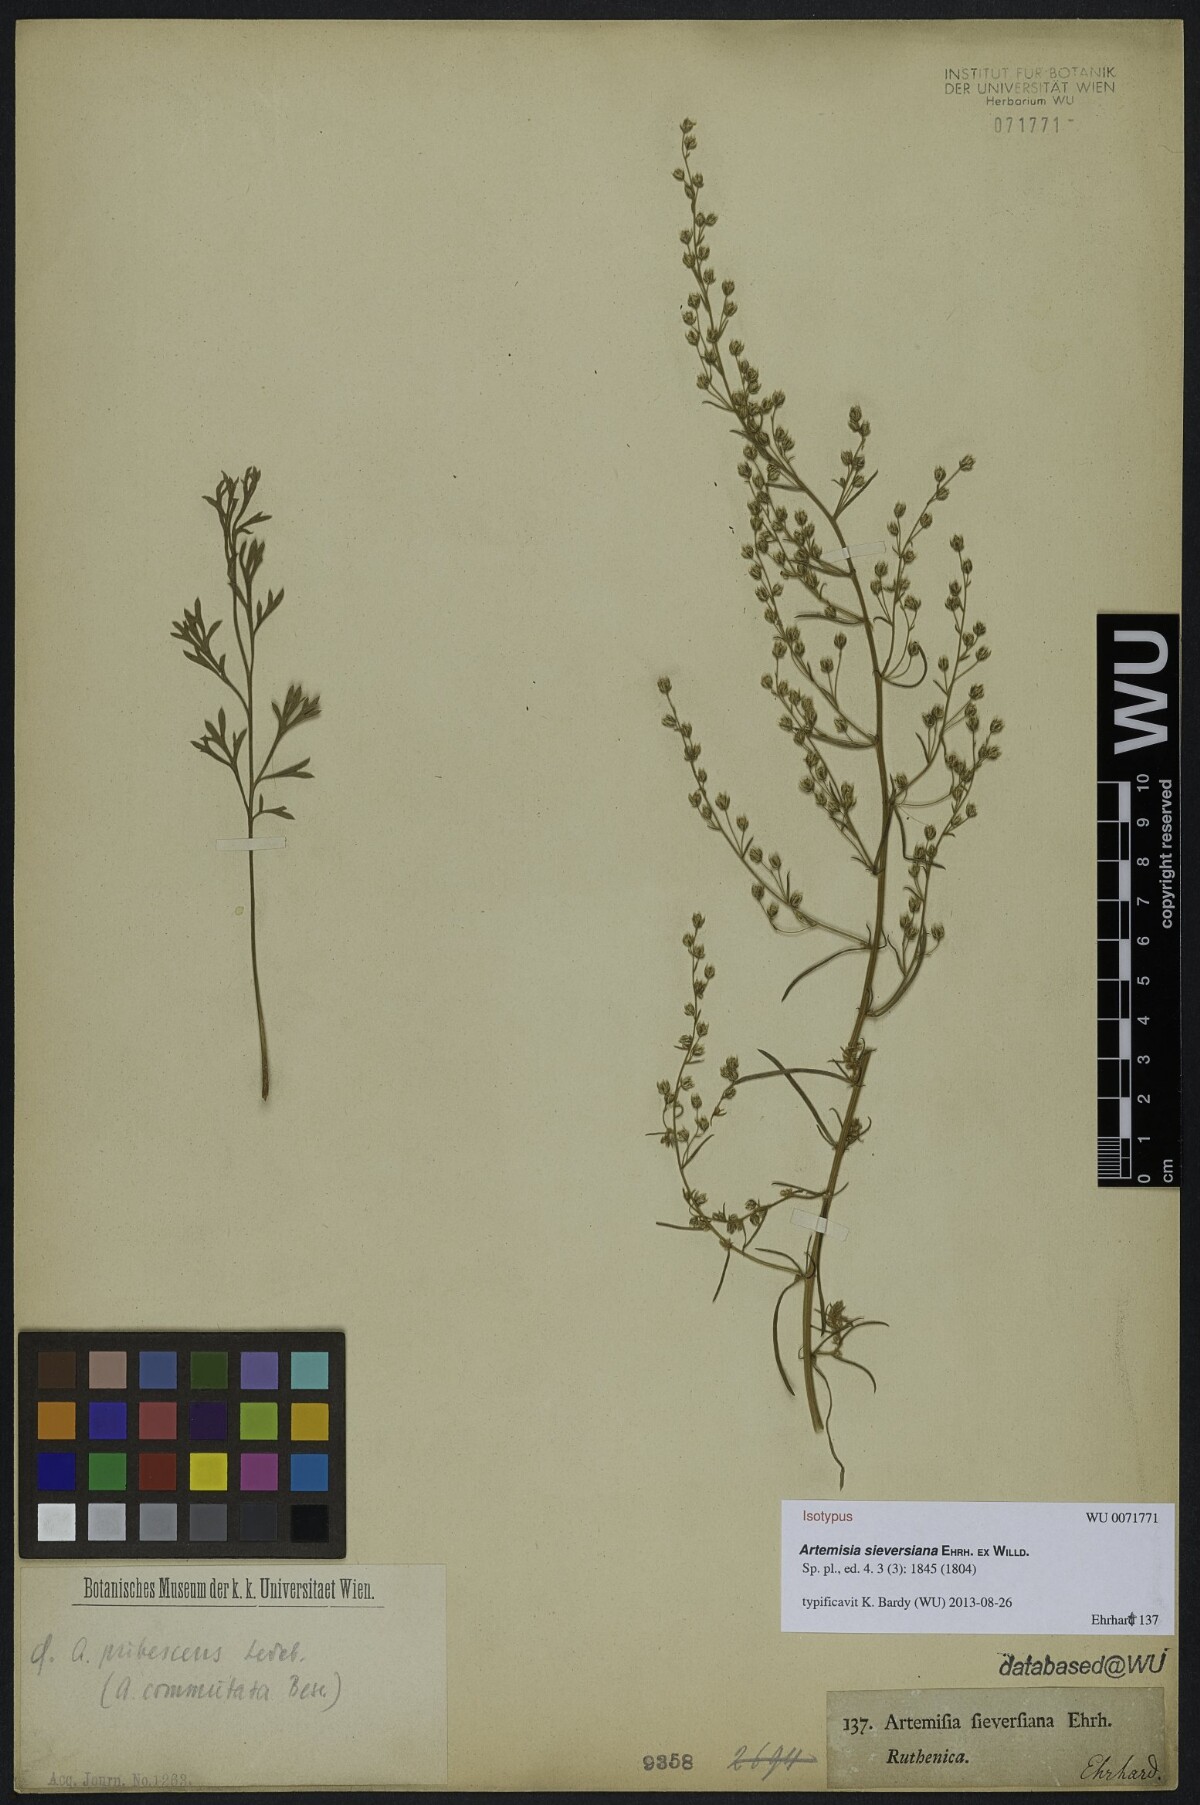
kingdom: Plantae
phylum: Tracheophyta
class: Magnoliopsida
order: Asterales
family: Asteraceae
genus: Artemisia
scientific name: Artemisia sieversiana
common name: Sieversian wormwood
